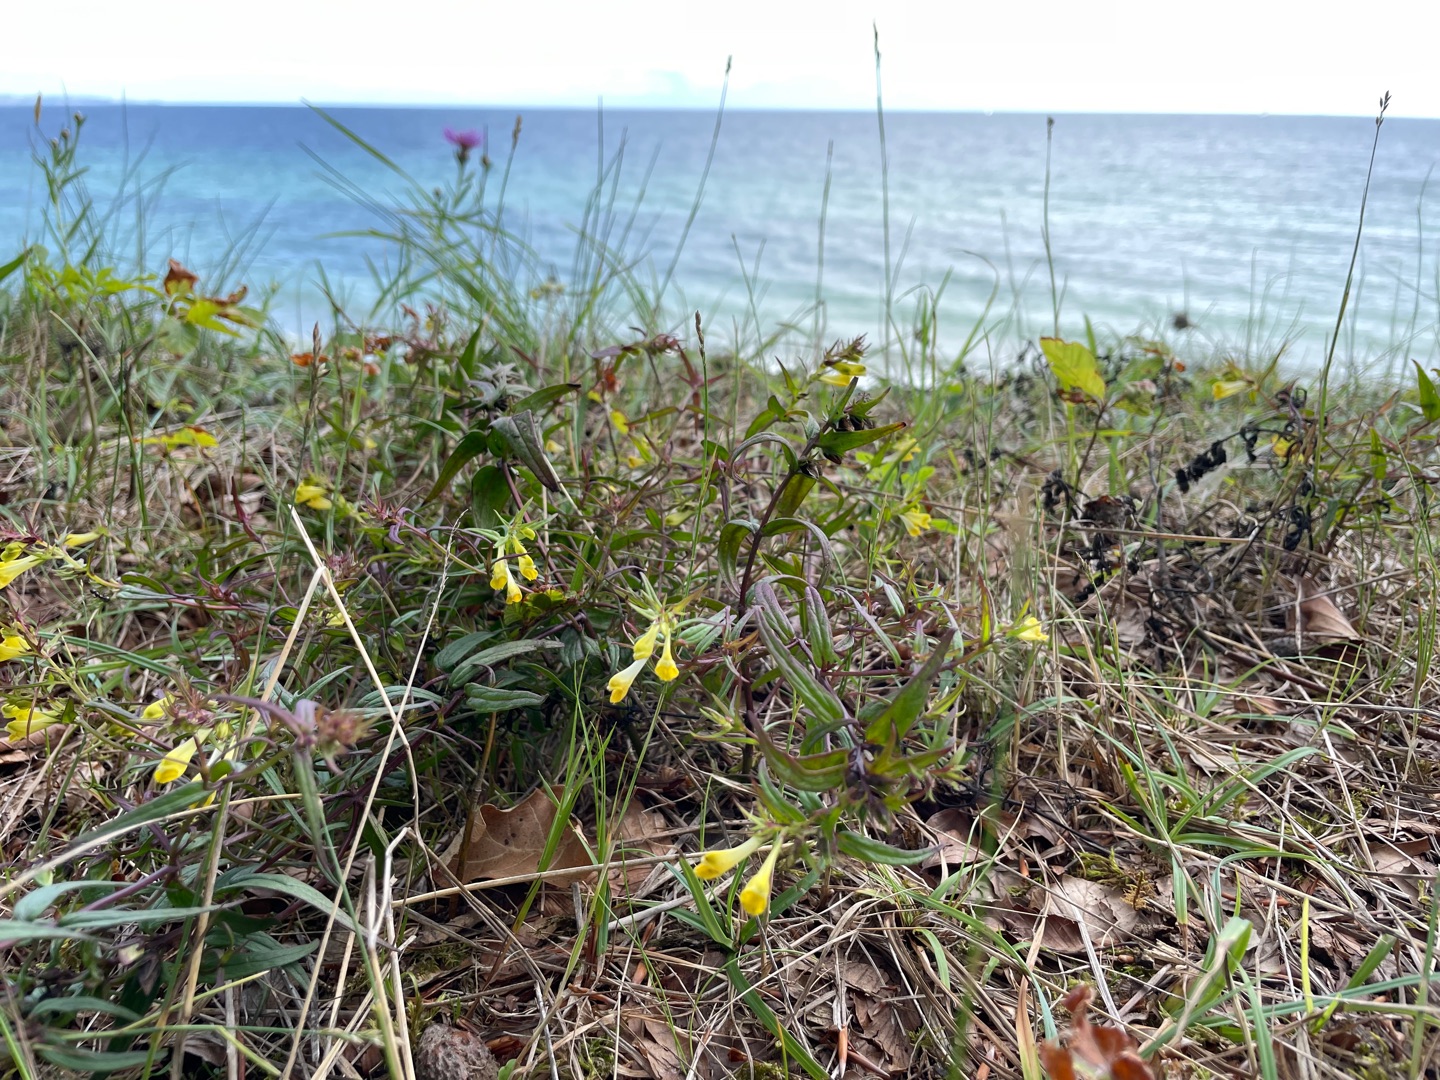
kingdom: Plantae
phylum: Tracheophyta
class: Magnoliopsida
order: Lamiales
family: Orobanchaceae
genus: Melampyrum
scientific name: Melampyrum pratense
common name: Almindelig kohvede
